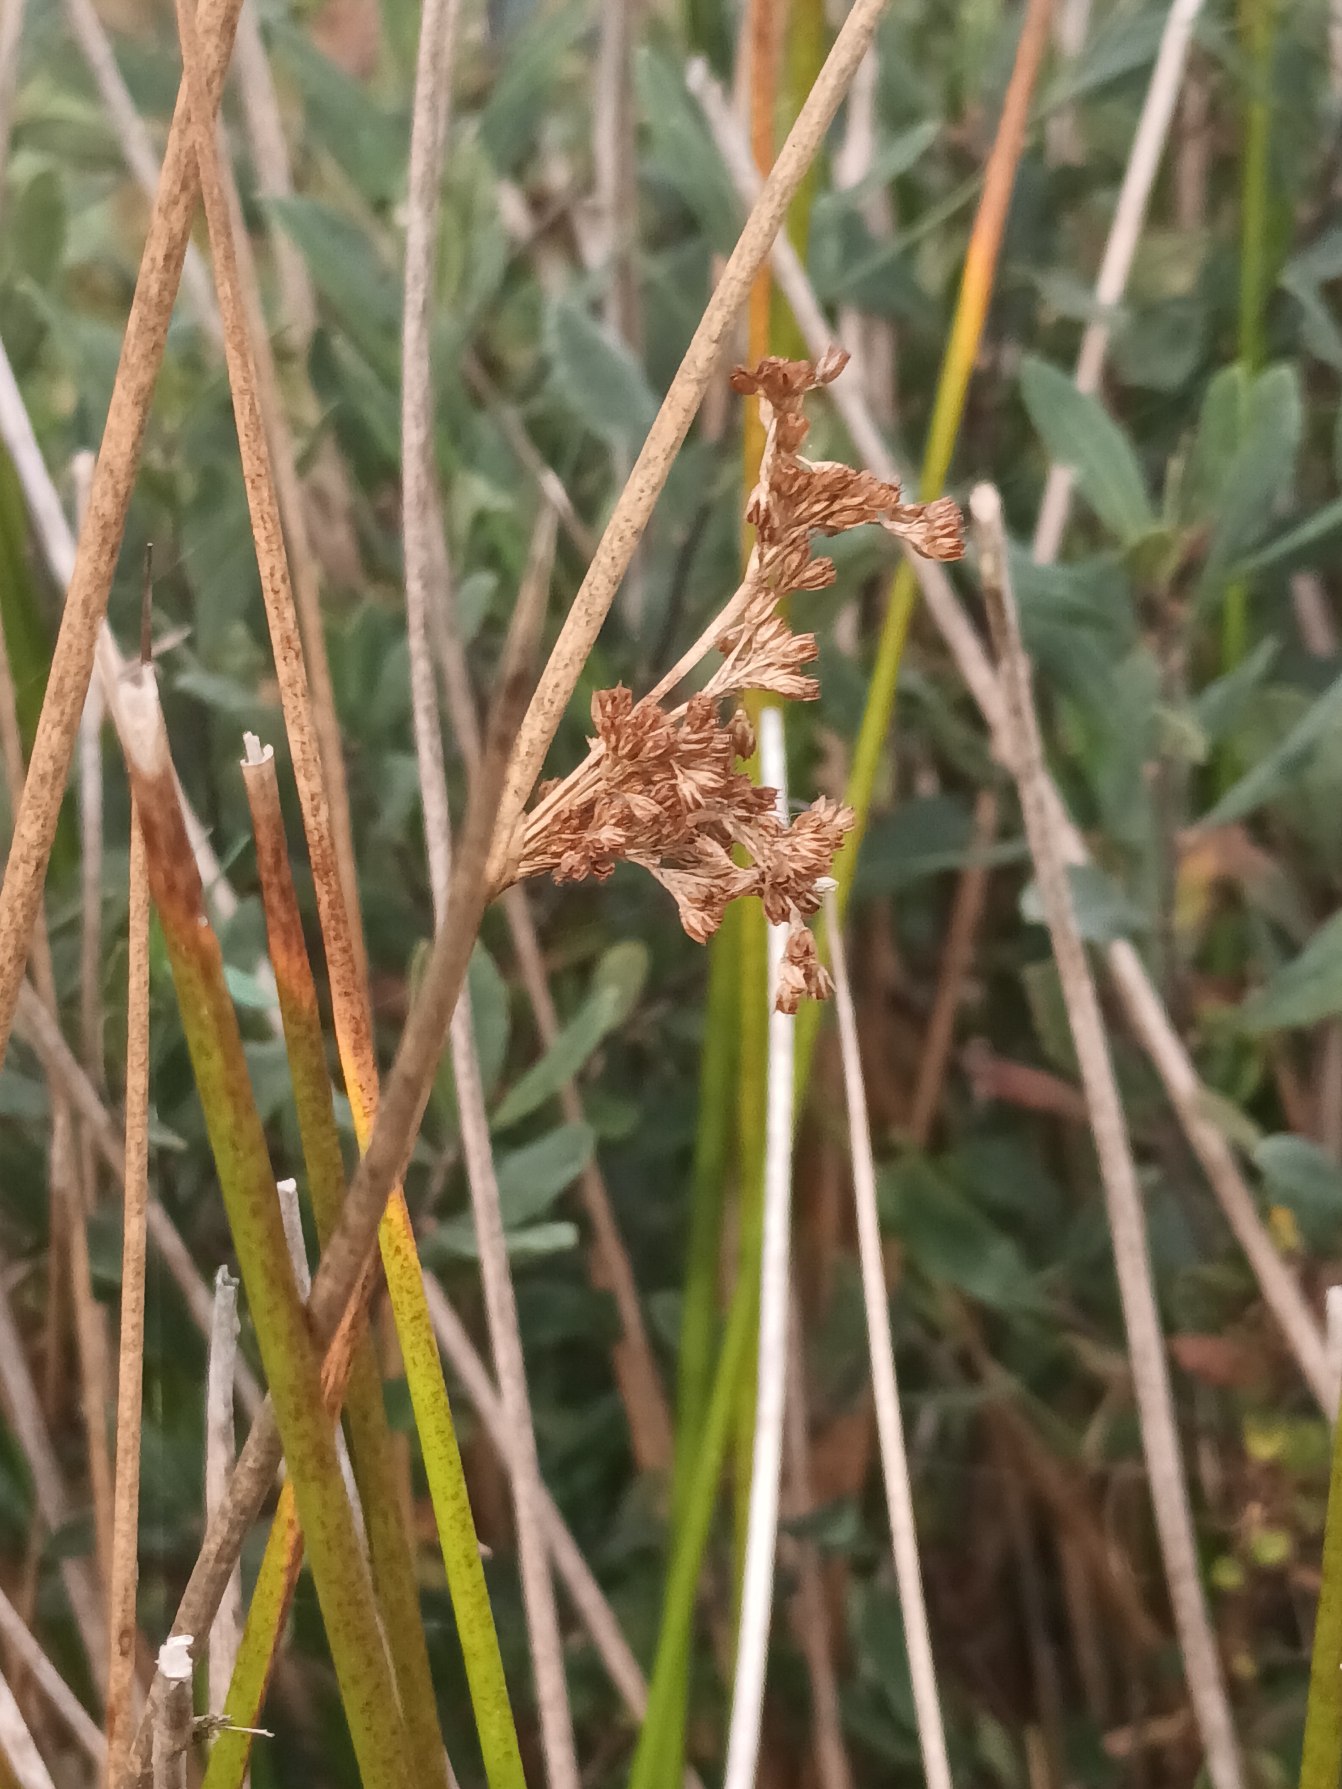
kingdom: Plantae
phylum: Tracheophyta
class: Liliopsida
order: Poales
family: Juncaceae
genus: Juncus
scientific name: Juncus effusus
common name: Lyse-siv
